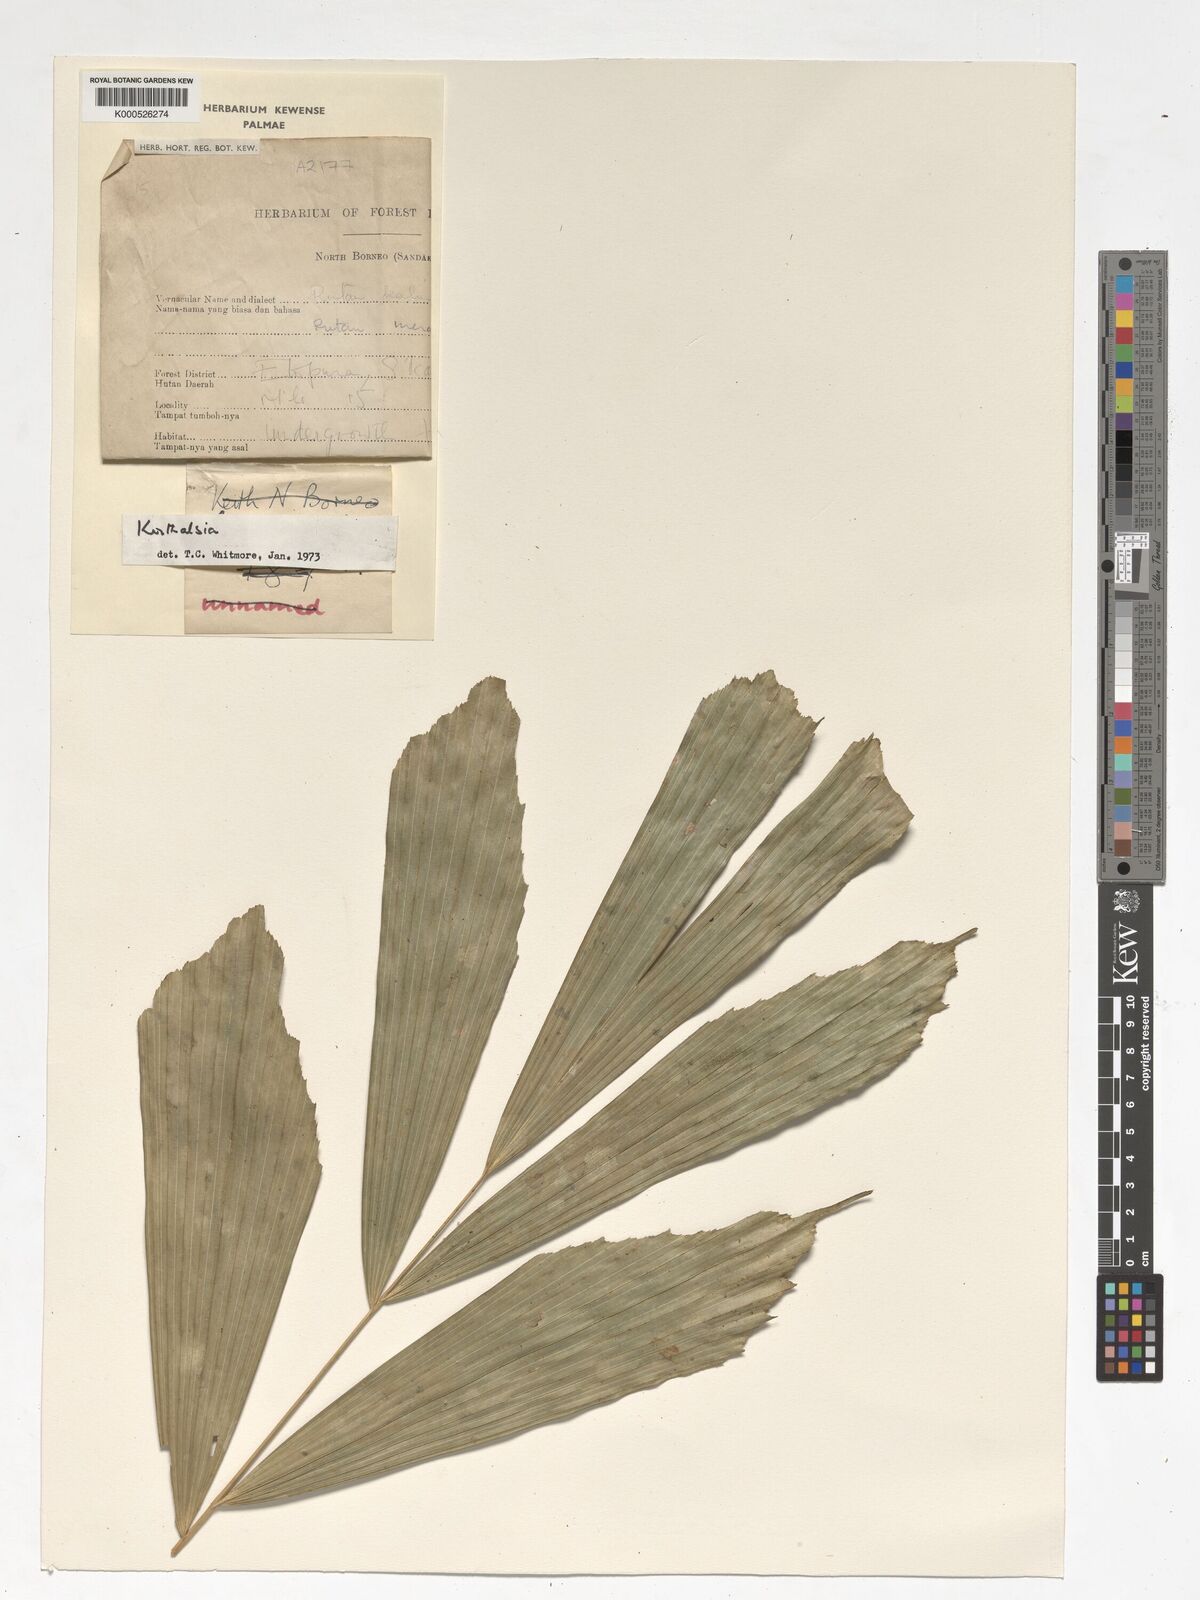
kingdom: Plantae
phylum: Tracheophyta
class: Liliopsida
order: Arecales
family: Arecaceae
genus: Korthalsia
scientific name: Korthalsia
